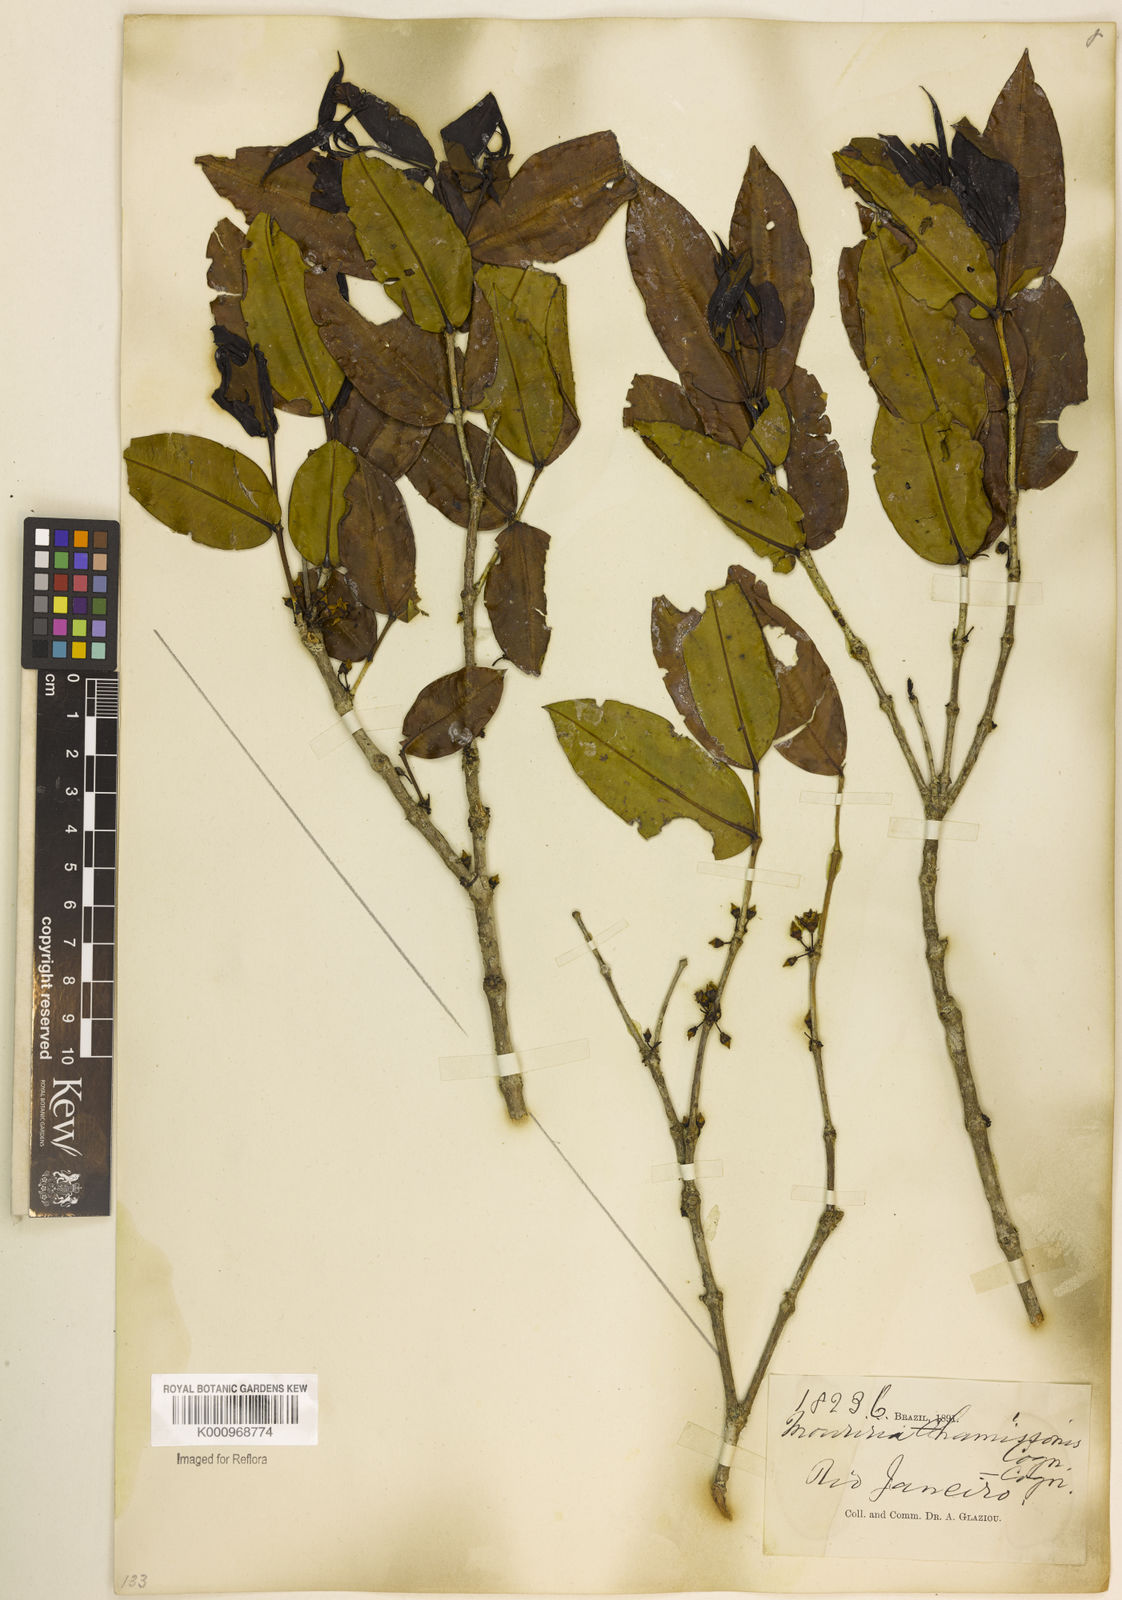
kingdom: Plantae
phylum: Tracheophyta
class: Magnoliopsida
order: Myrtales
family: Melastomataceae
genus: Mouriri
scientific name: Mouriri chamissoana
